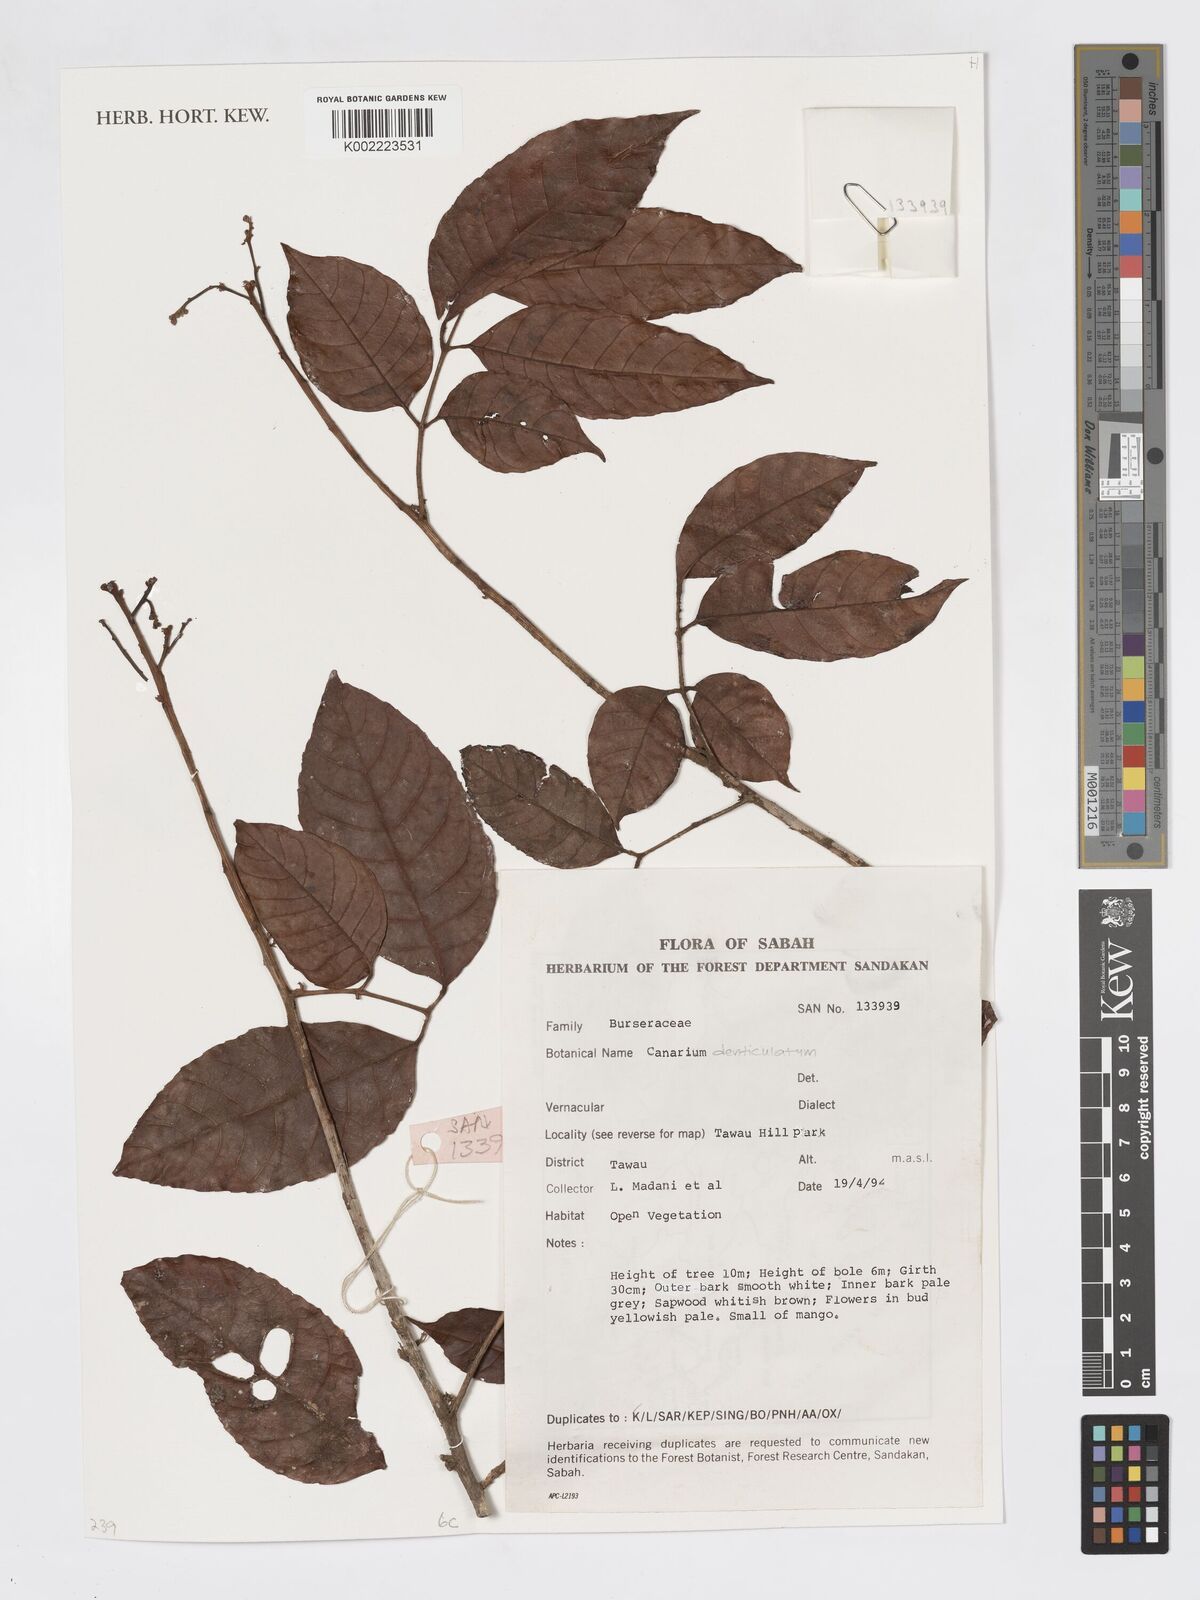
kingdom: Plantae
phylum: Tracheophyta
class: Magnoliopsida
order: Sapindales
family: Burseraceae
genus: Canarium
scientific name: Canarium denticulatum
